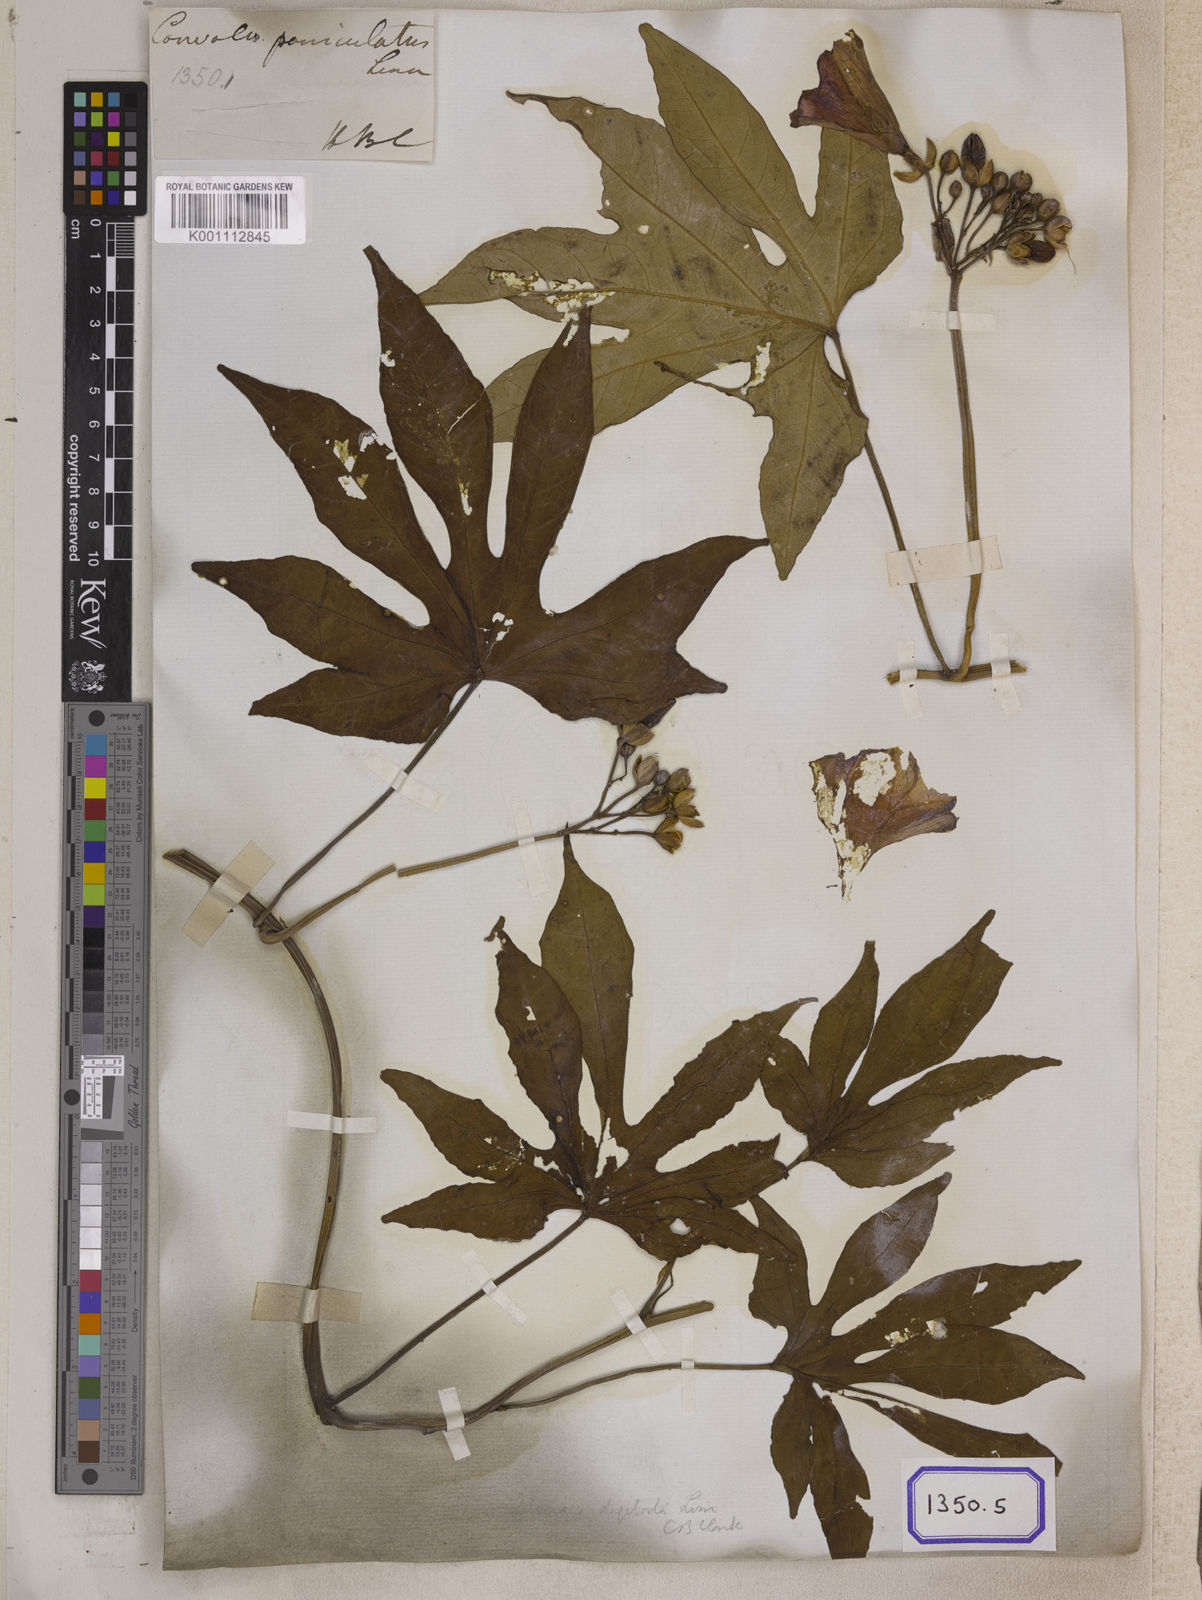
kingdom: Plantae
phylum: Tracheophyta
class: Magnoliopsida
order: Solanales
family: Convolvulaceae
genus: Ipomoea
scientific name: Ipomoea mauritiana
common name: Mauritanian convolvulus
